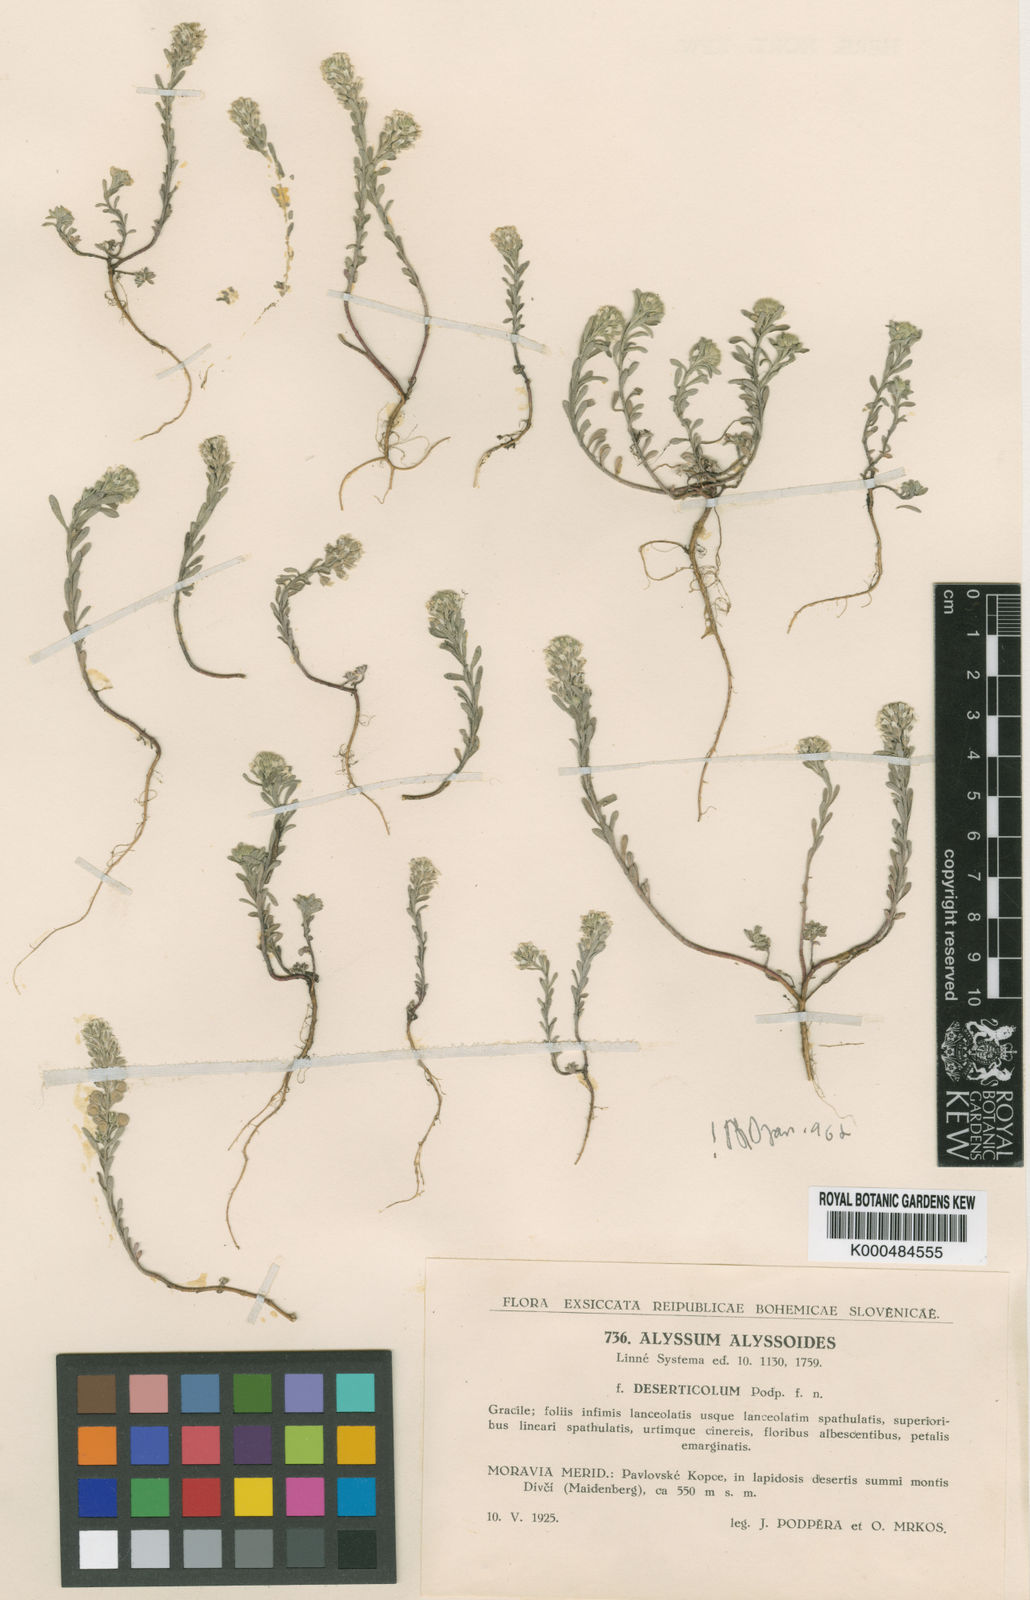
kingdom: Plantae
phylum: Tracheophyta
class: Magnoliopsida
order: Brassicales
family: Brassicaceae
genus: Alyssum
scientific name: Alyssum alyssoides
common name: Small alison
